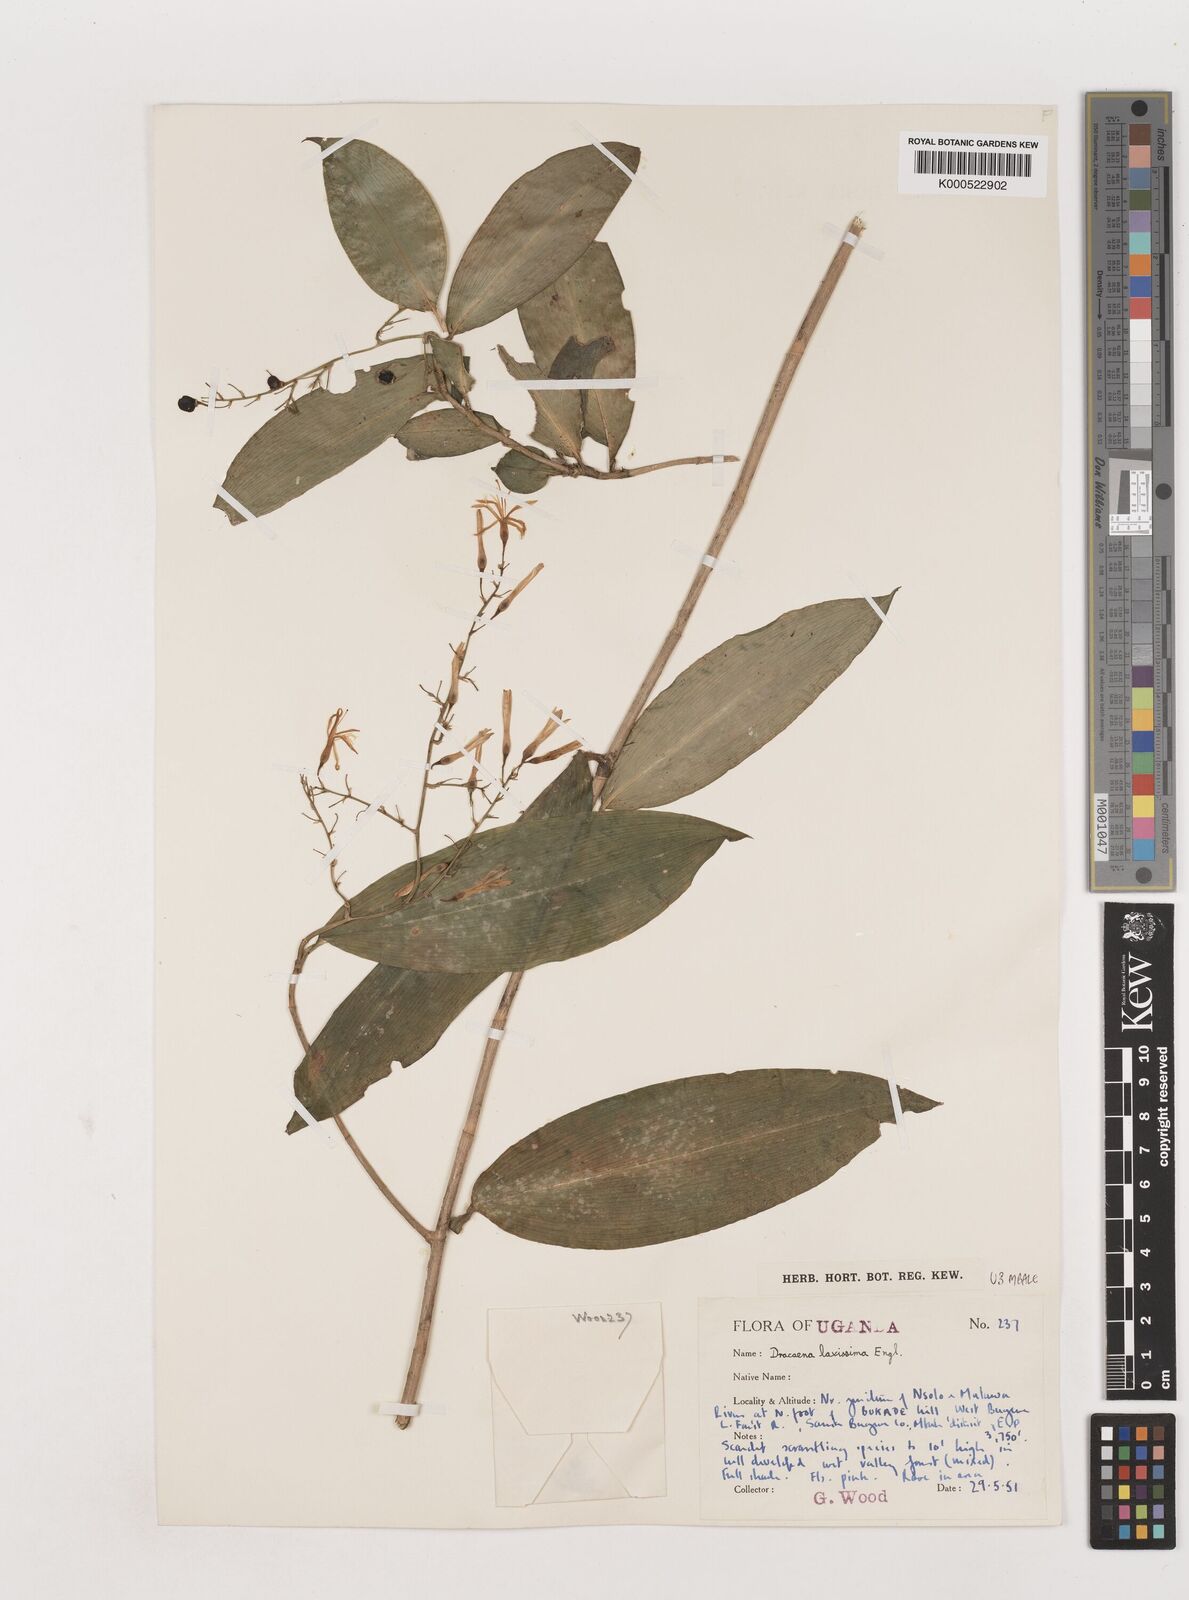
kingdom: Plantae
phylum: Tracheophyta
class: Liliopsida
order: Asparagales
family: Asparagaceae
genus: Dracaena
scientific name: Dracaena laxissima
